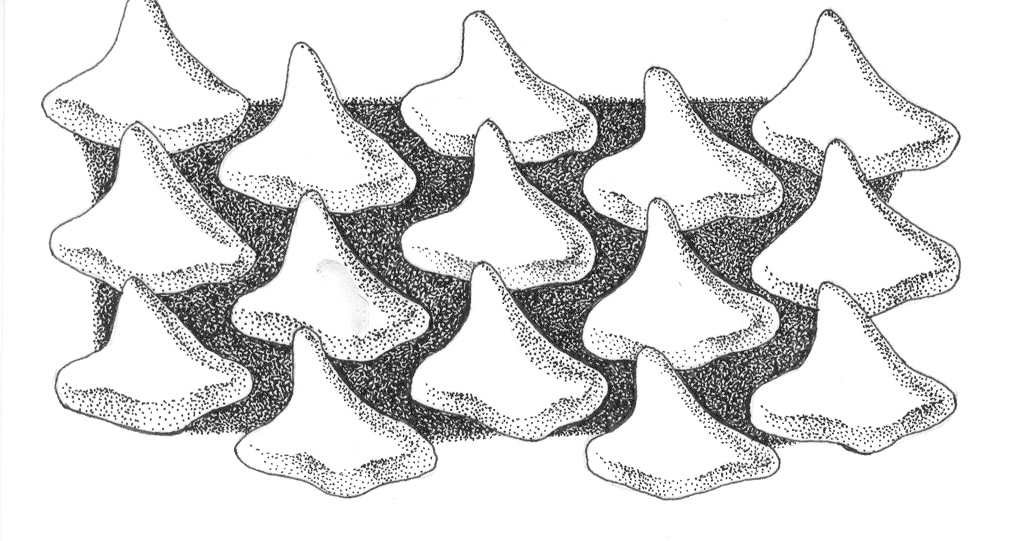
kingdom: Animalia
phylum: Chordata
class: Elasmobranchii
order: Carcharhiniformes
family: Triakidae
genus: Triakis
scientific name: Triakis megalopterus
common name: Spotted gully shark
